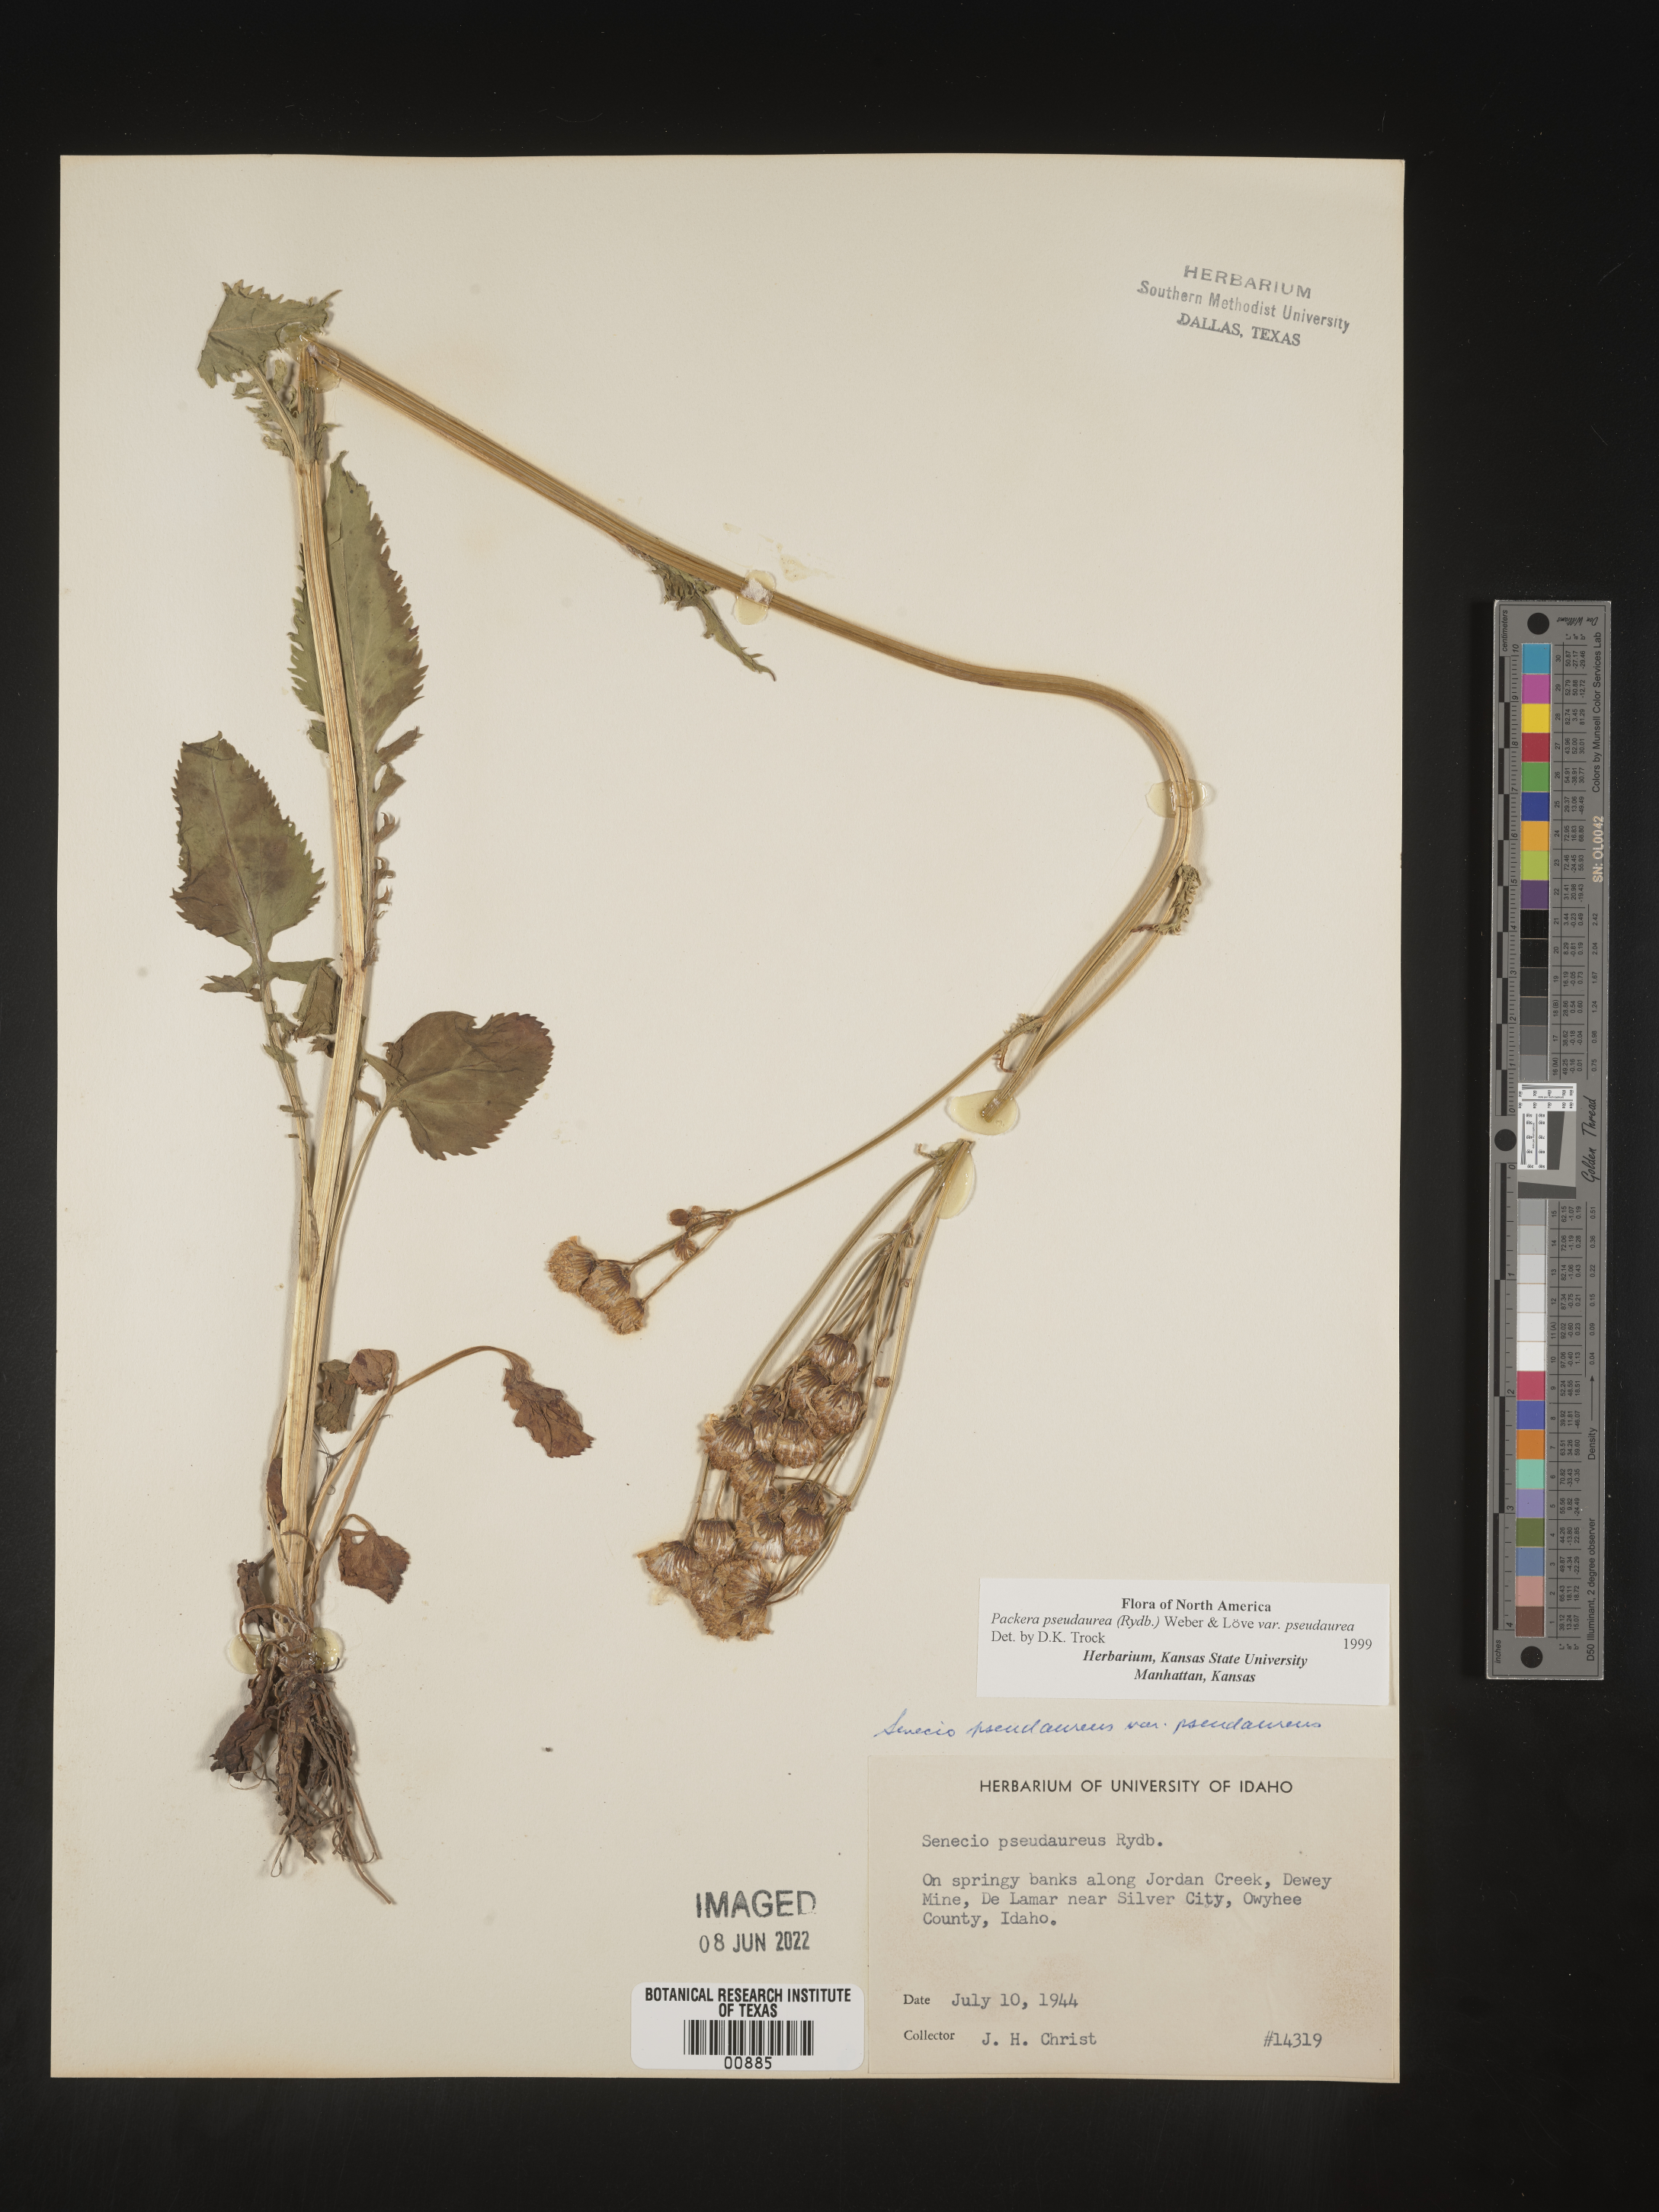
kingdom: Plantae
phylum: Tracheophyta
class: Magnoliopsida
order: Asterales
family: Asteraceae
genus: Packera
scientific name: Packera pseudaurea
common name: False-gold groundsel
